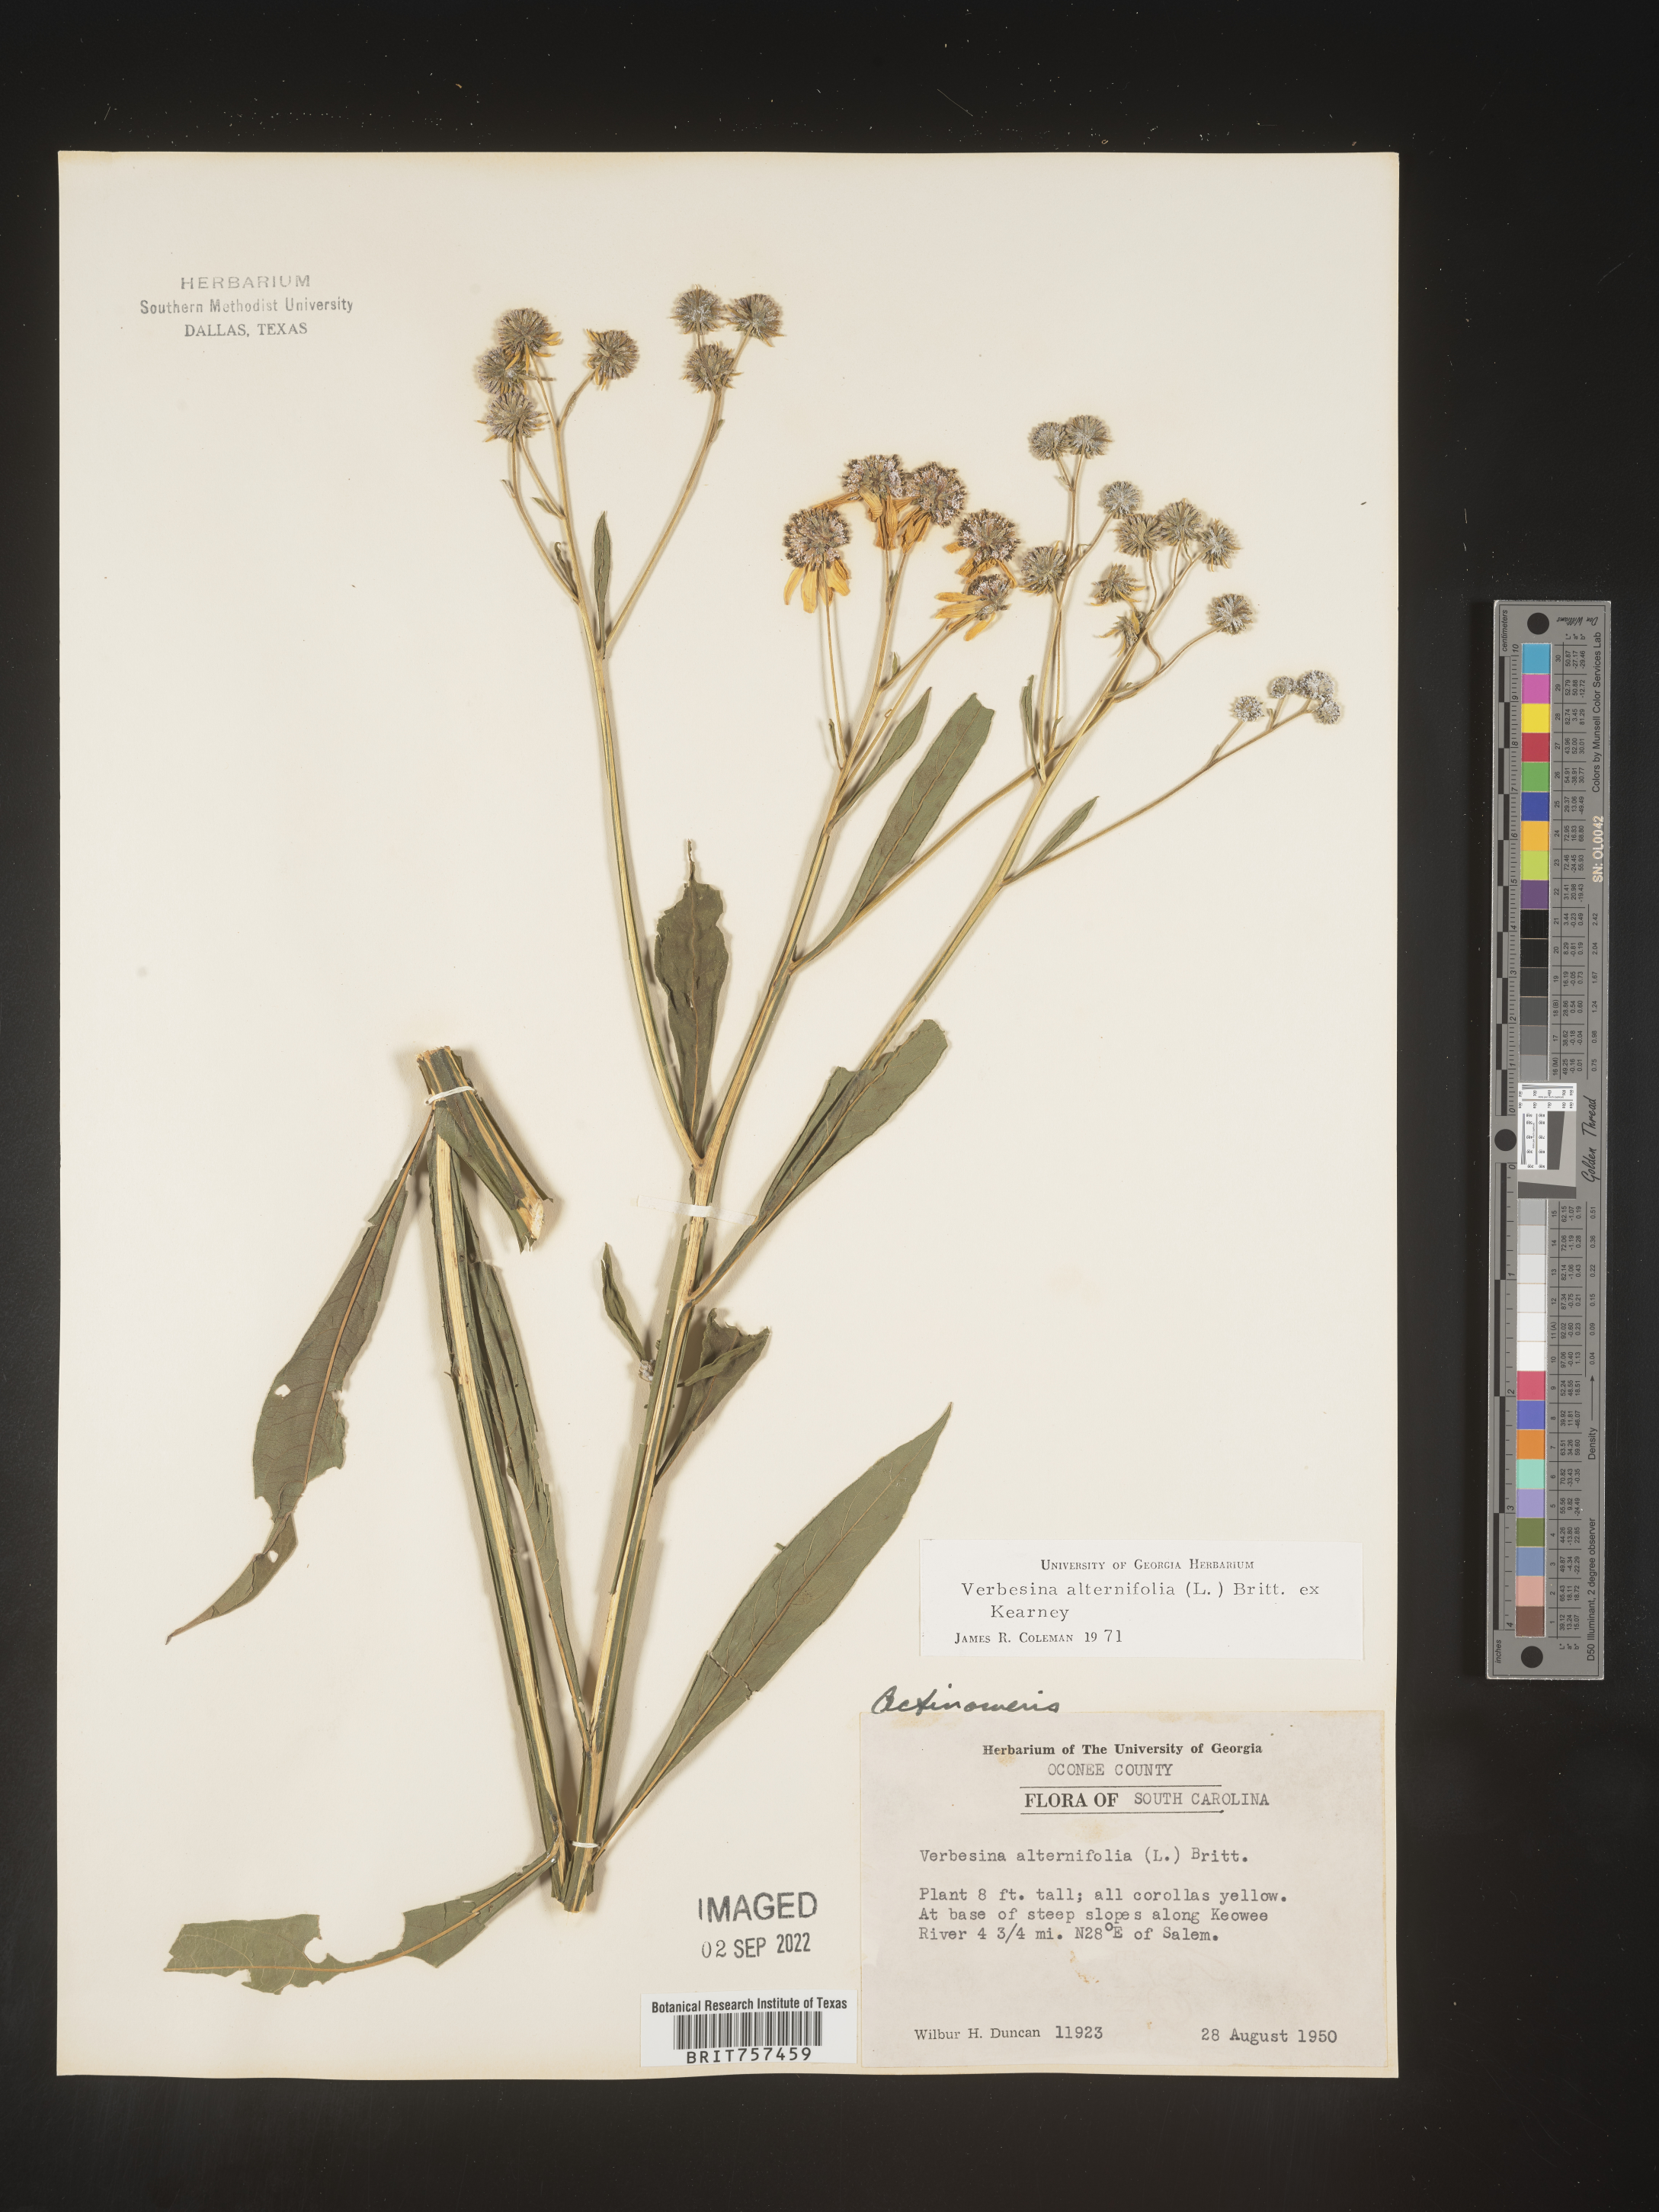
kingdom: Plantae
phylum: Tracheophyta
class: Magnoliopsida
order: Asterales
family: Asteraceae
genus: Verbesina
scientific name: Verbesina alternifolia
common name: Wingstem
